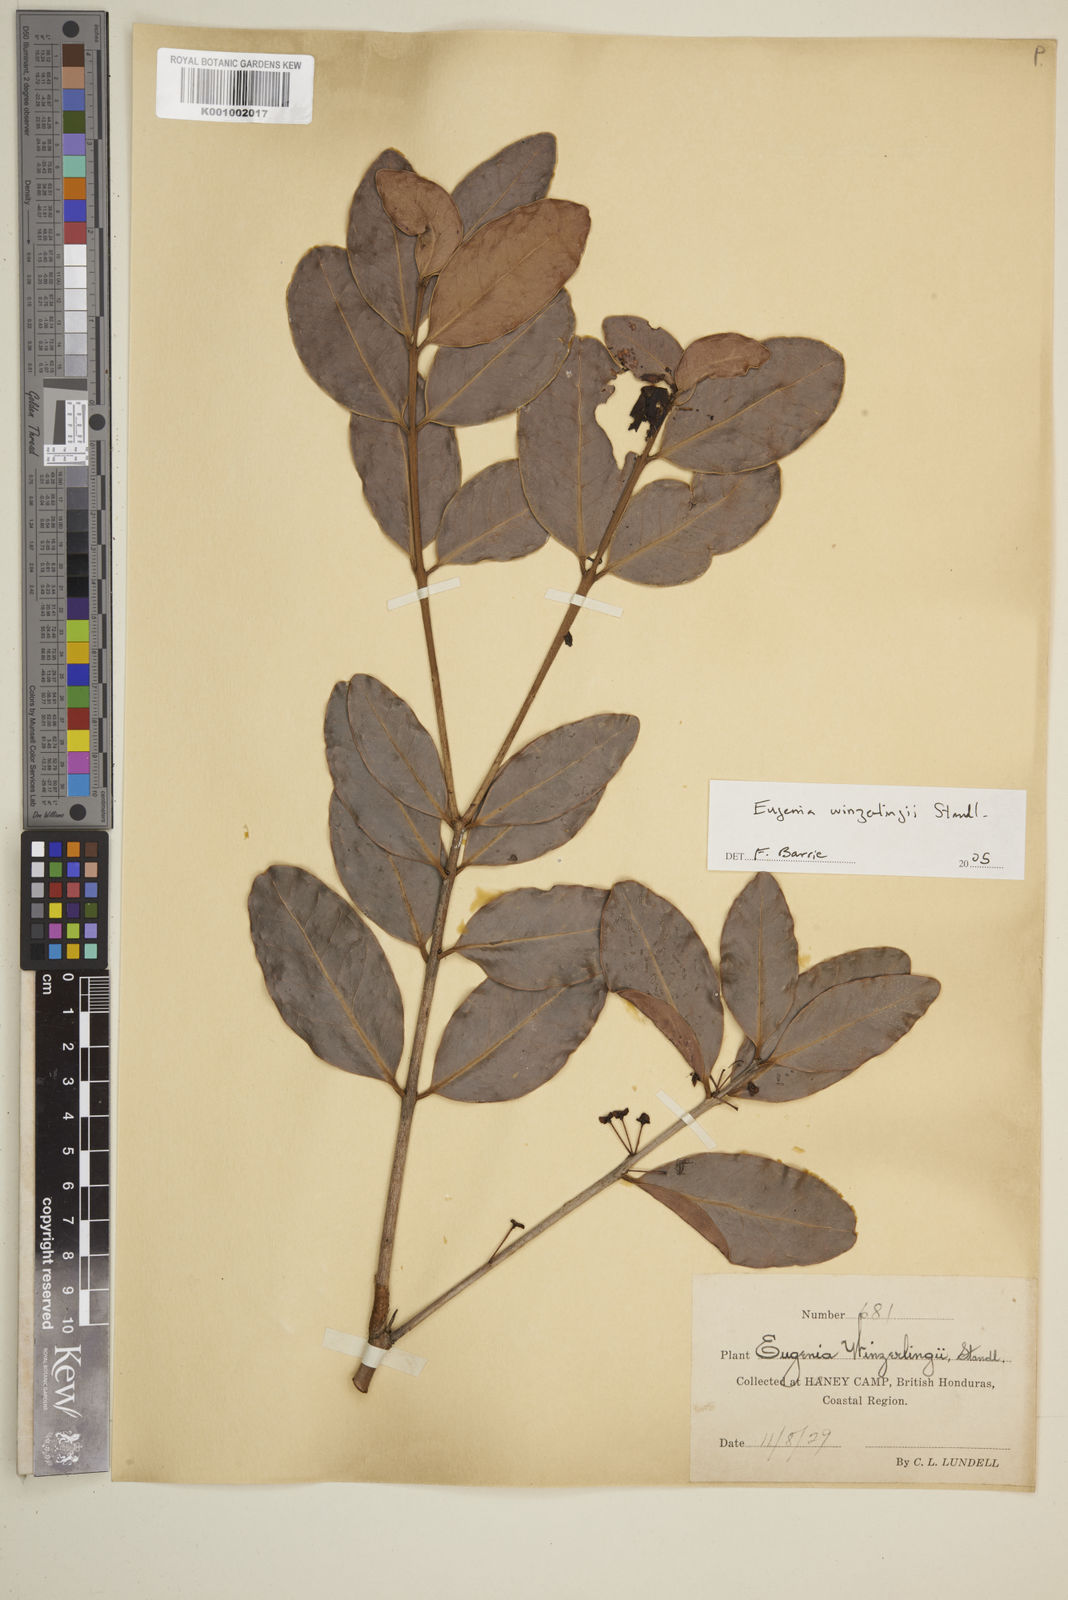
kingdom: Plantae
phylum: Tracheophyta
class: Magnoliopsida
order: Myrtales
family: Myrtaceae
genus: Eugenia
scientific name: Eugenia winzerlingii
